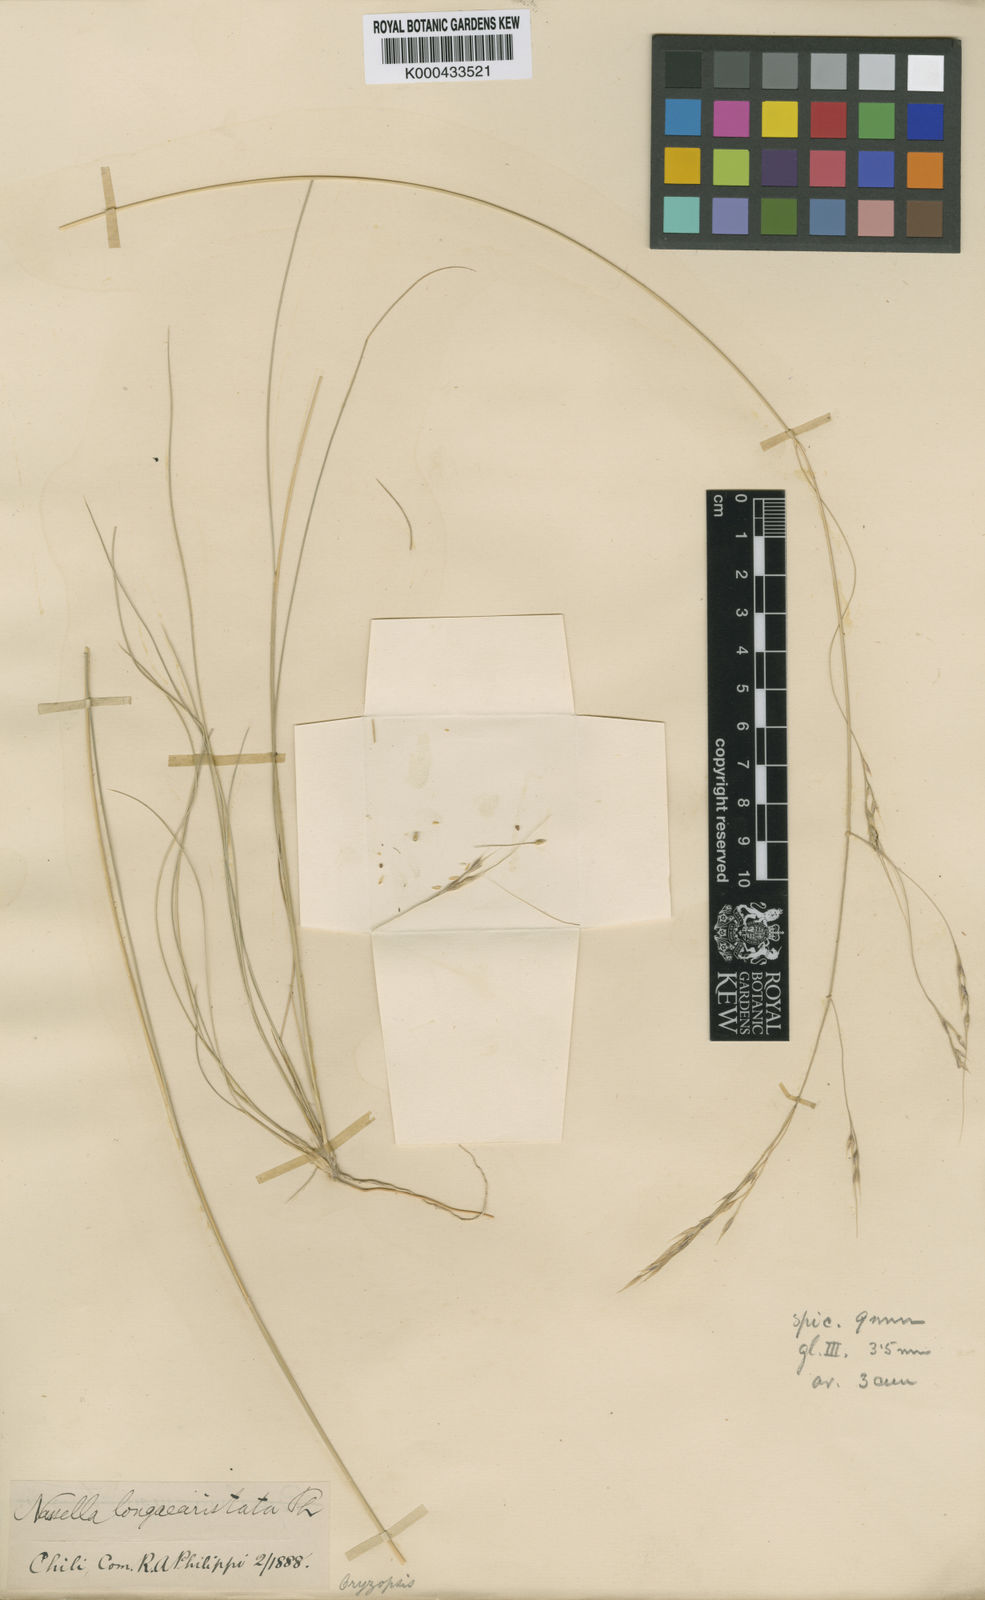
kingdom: Plantae
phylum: Tracheophyta
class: Liliopsida
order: Poales
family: Poaceae
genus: Nassella
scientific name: Nassella laevissima
